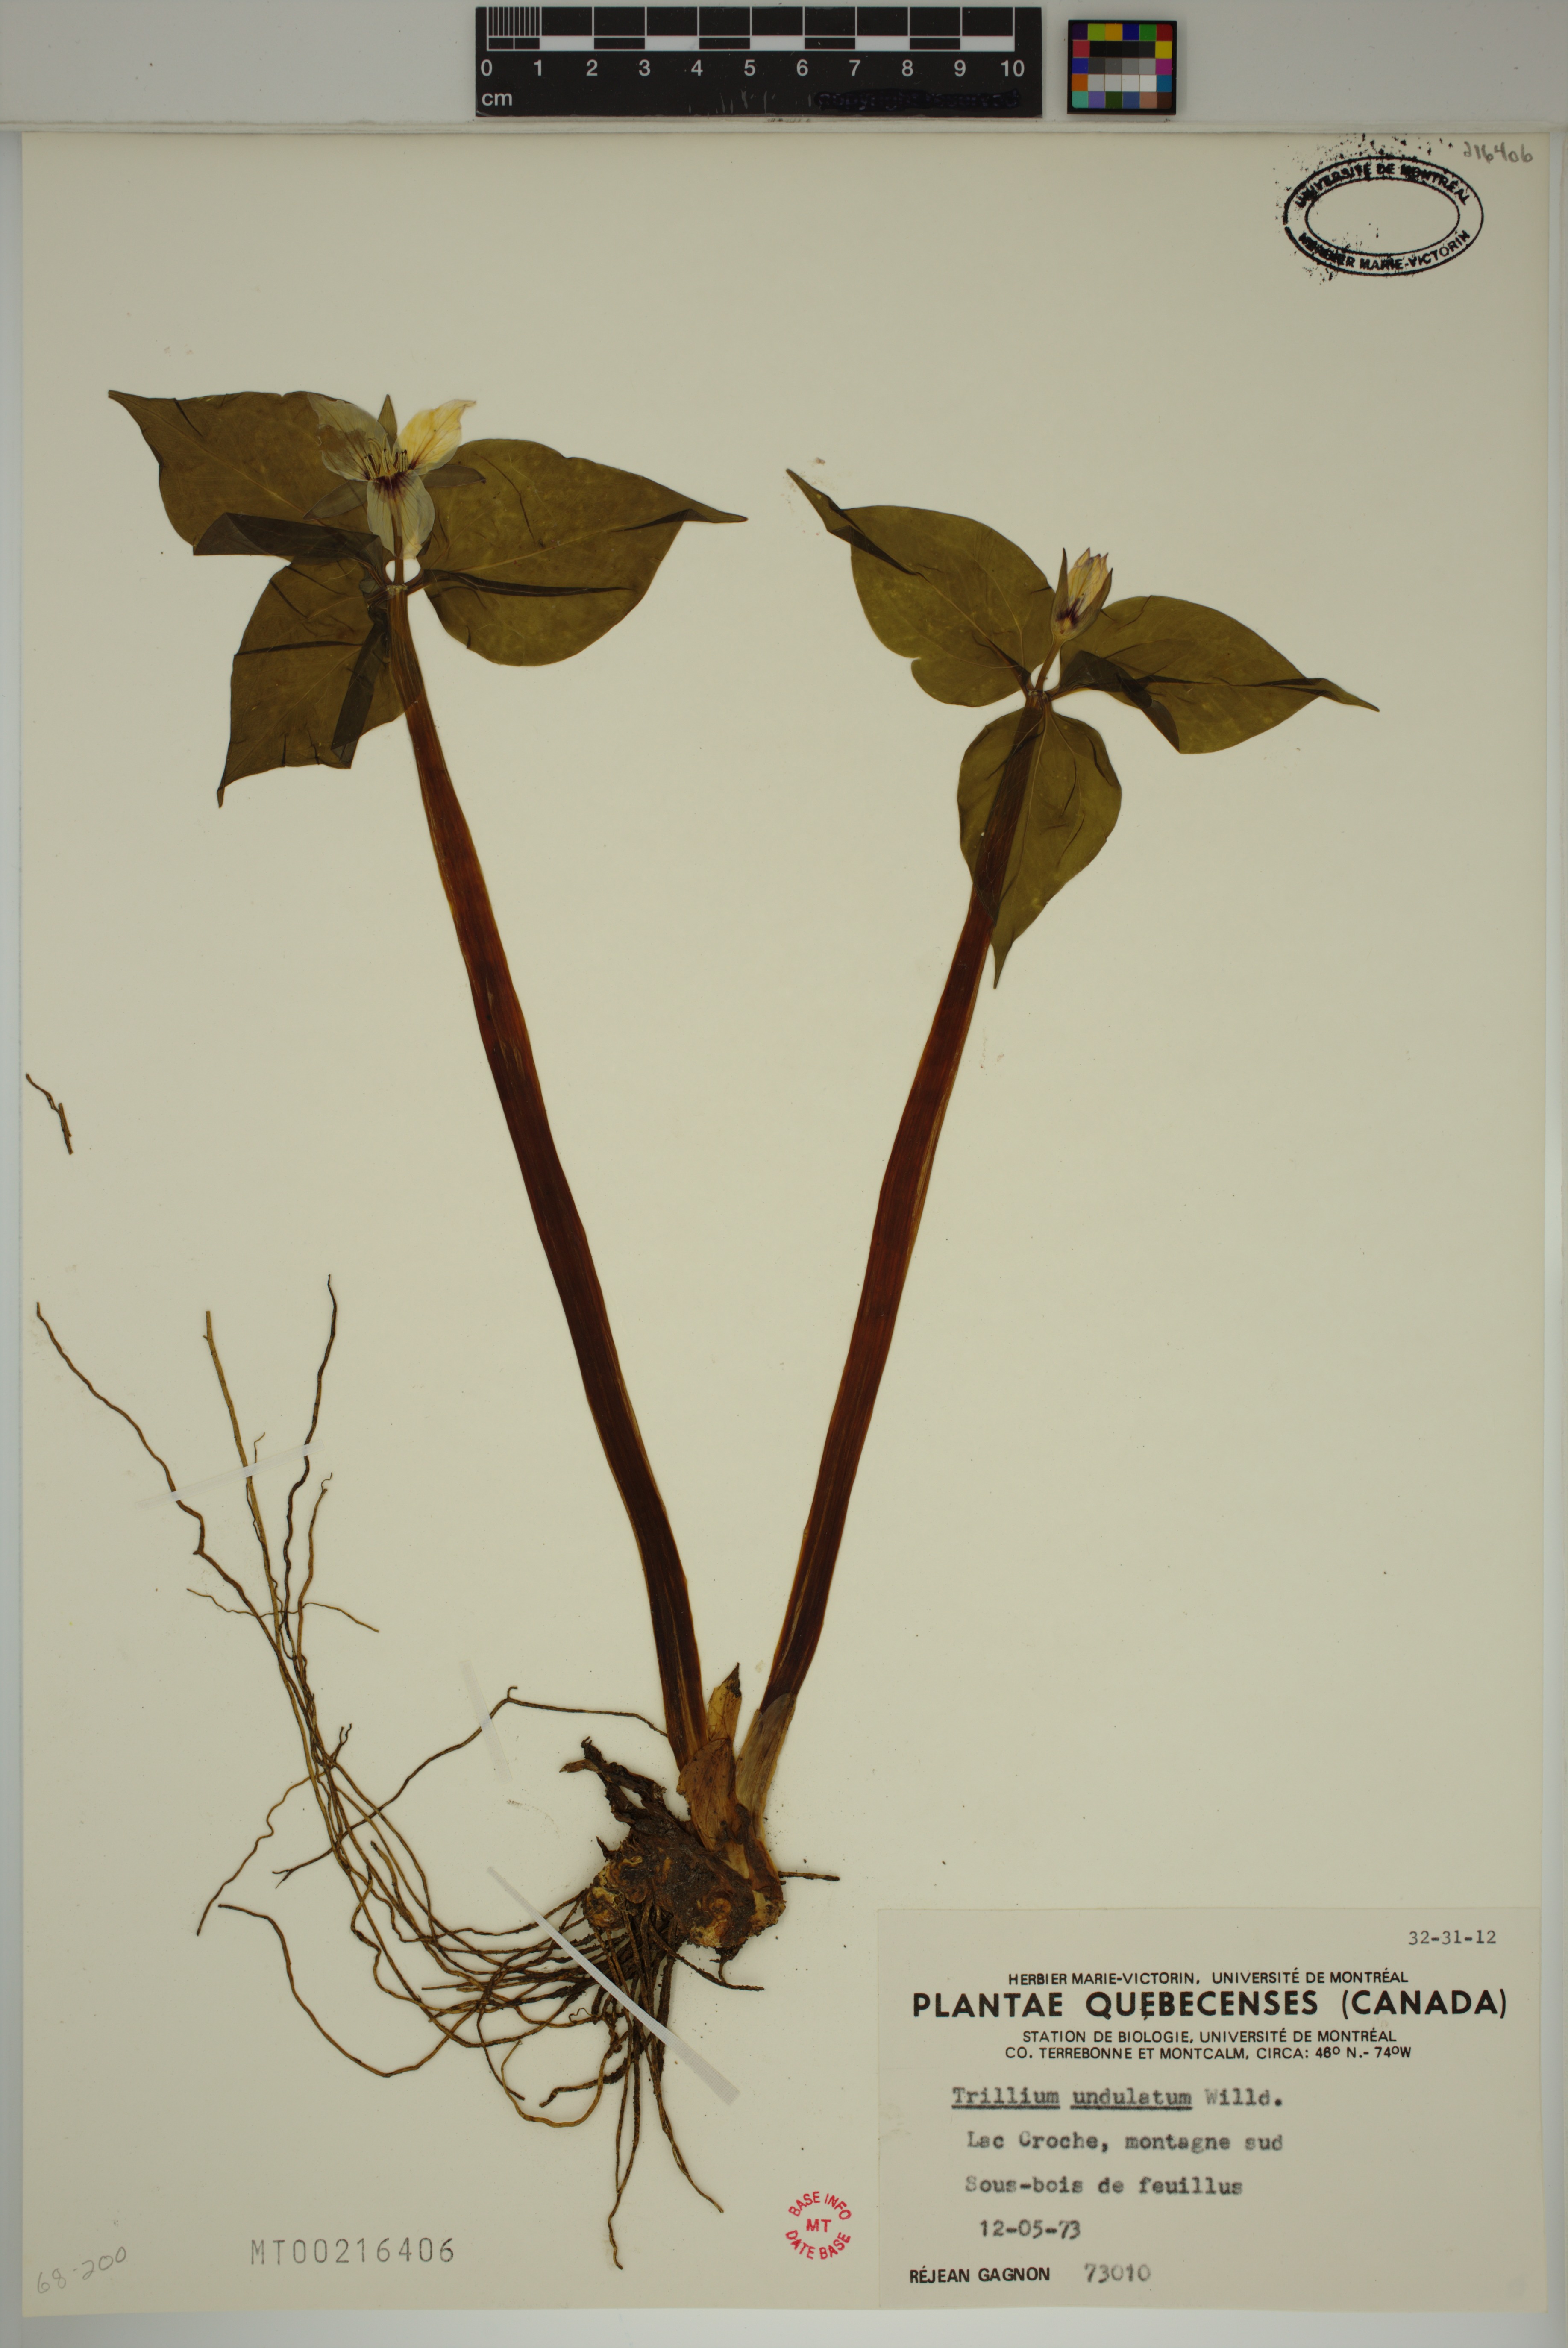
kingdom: Plantae
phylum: Tracheophyta
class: Liliopsida
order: Liliales
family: Melanthiaceae
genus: Trillium
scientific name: Trillium undulatum
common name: Paint trillium
